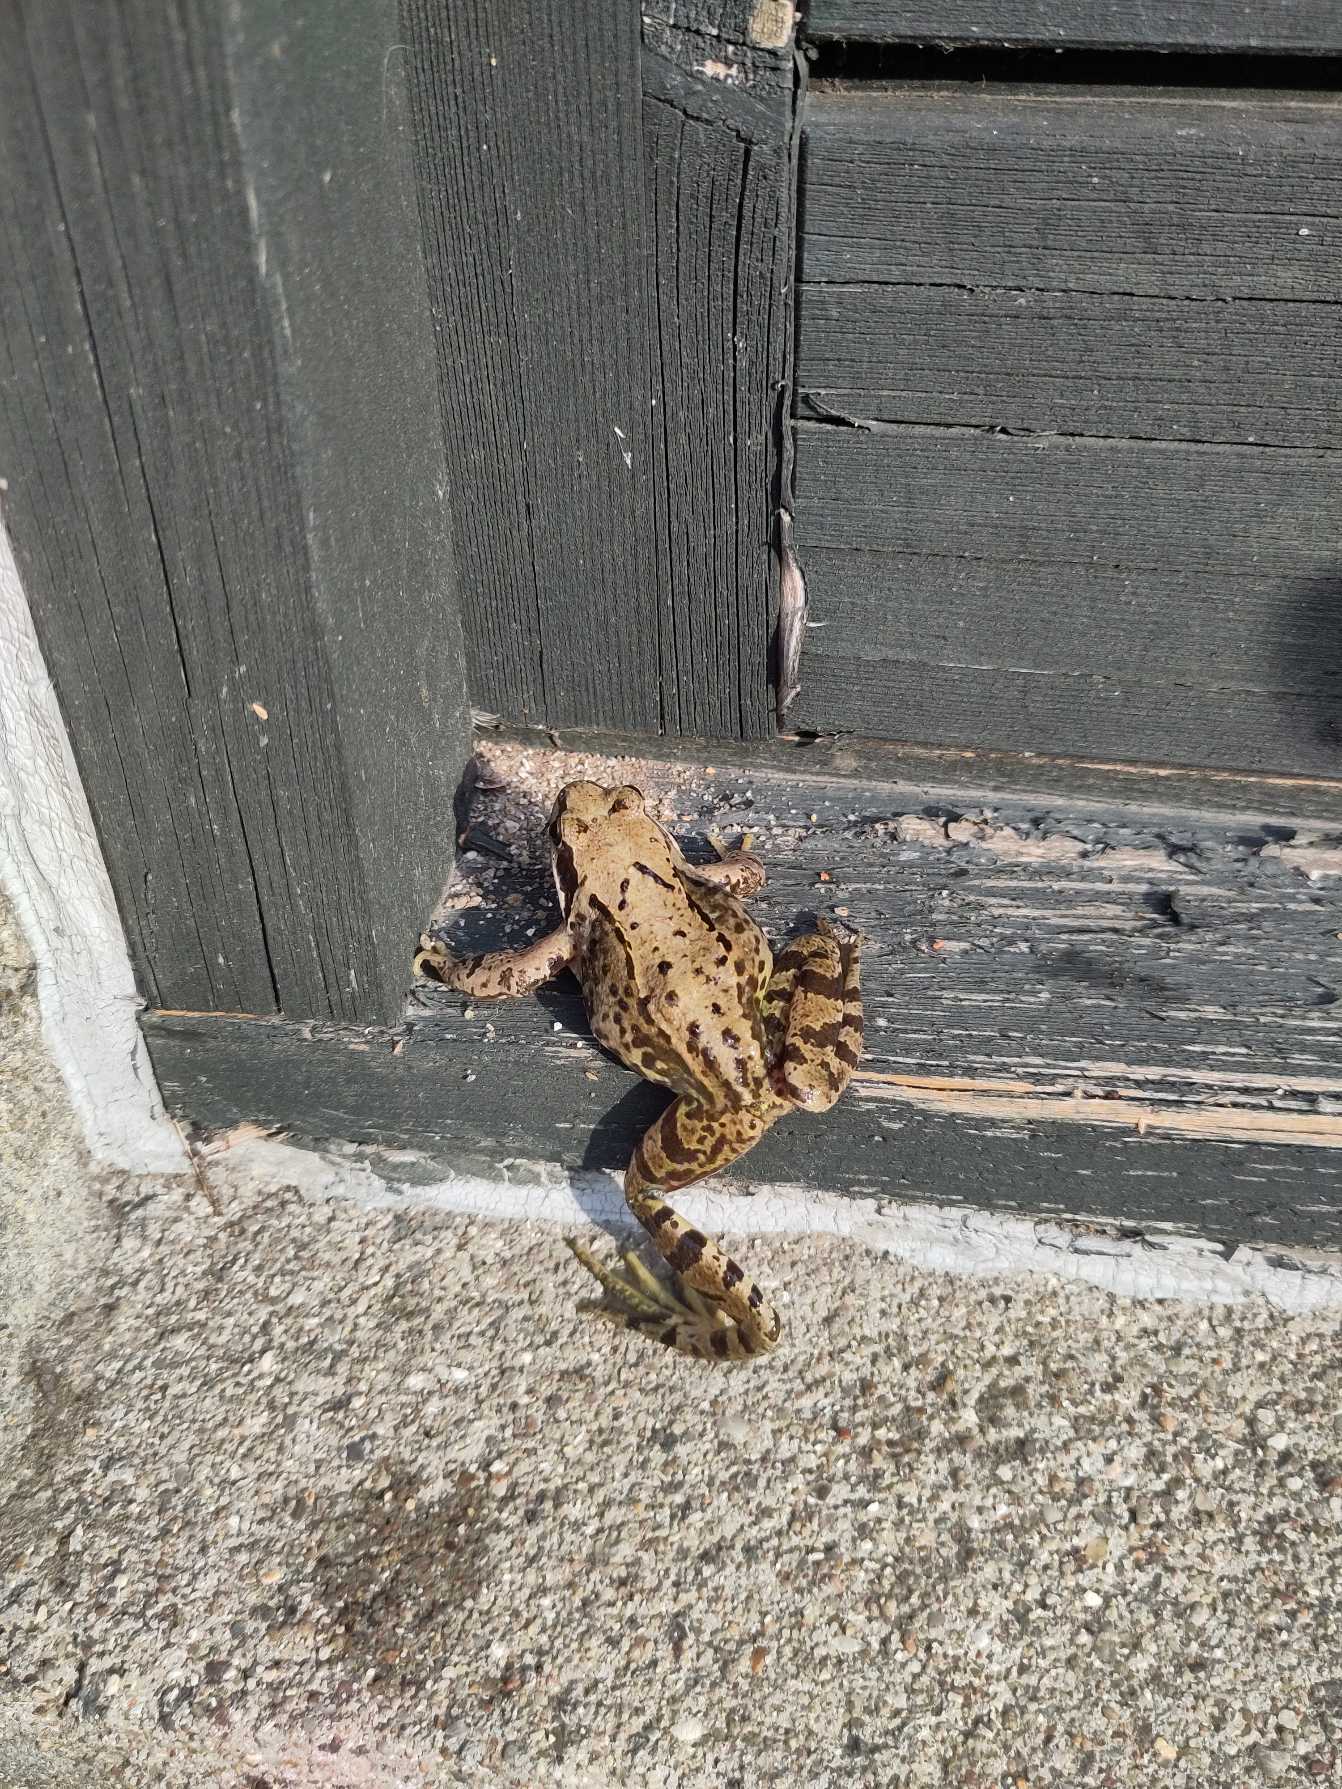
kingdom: Animalia
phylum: Chordata
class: Amphibia
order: Anura
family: Ranidae
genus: Rana
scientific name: Rana temporaria
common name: Butsnudet frø
